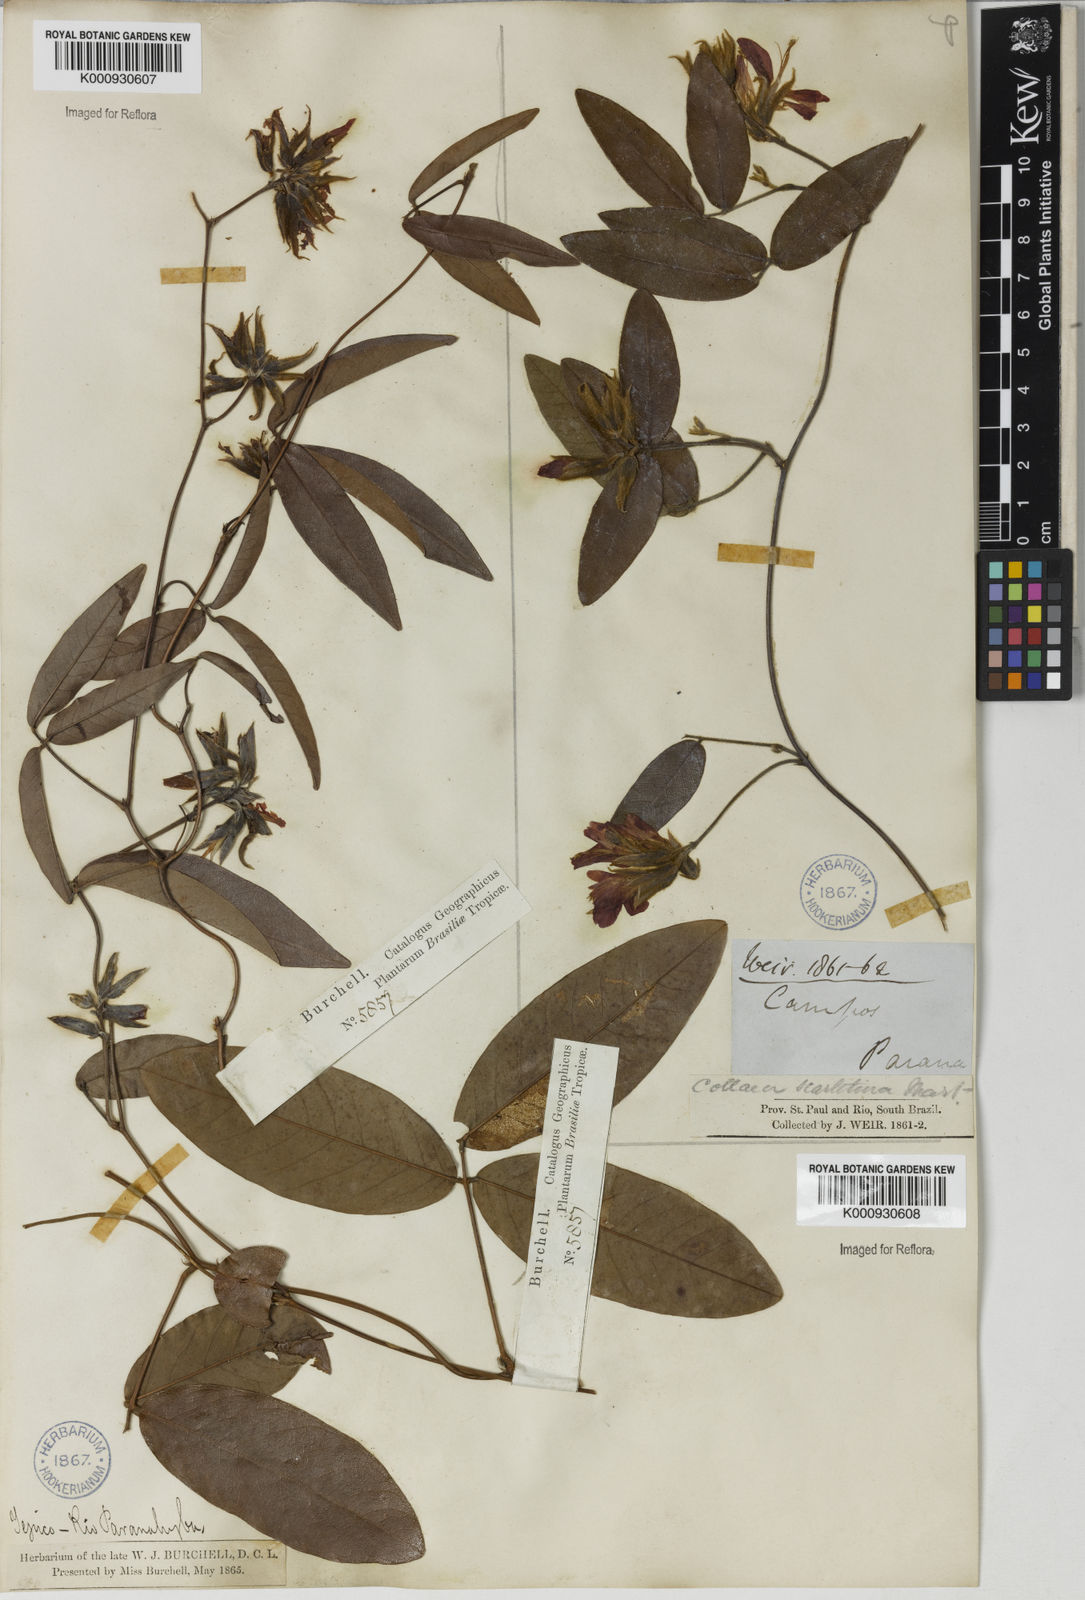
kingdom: Plantae
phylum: Tracheophyta
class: Magnoliopsida
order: Fabales
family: Fabaceae
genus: Betencourtia
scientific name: Betencourtia scarlatina
